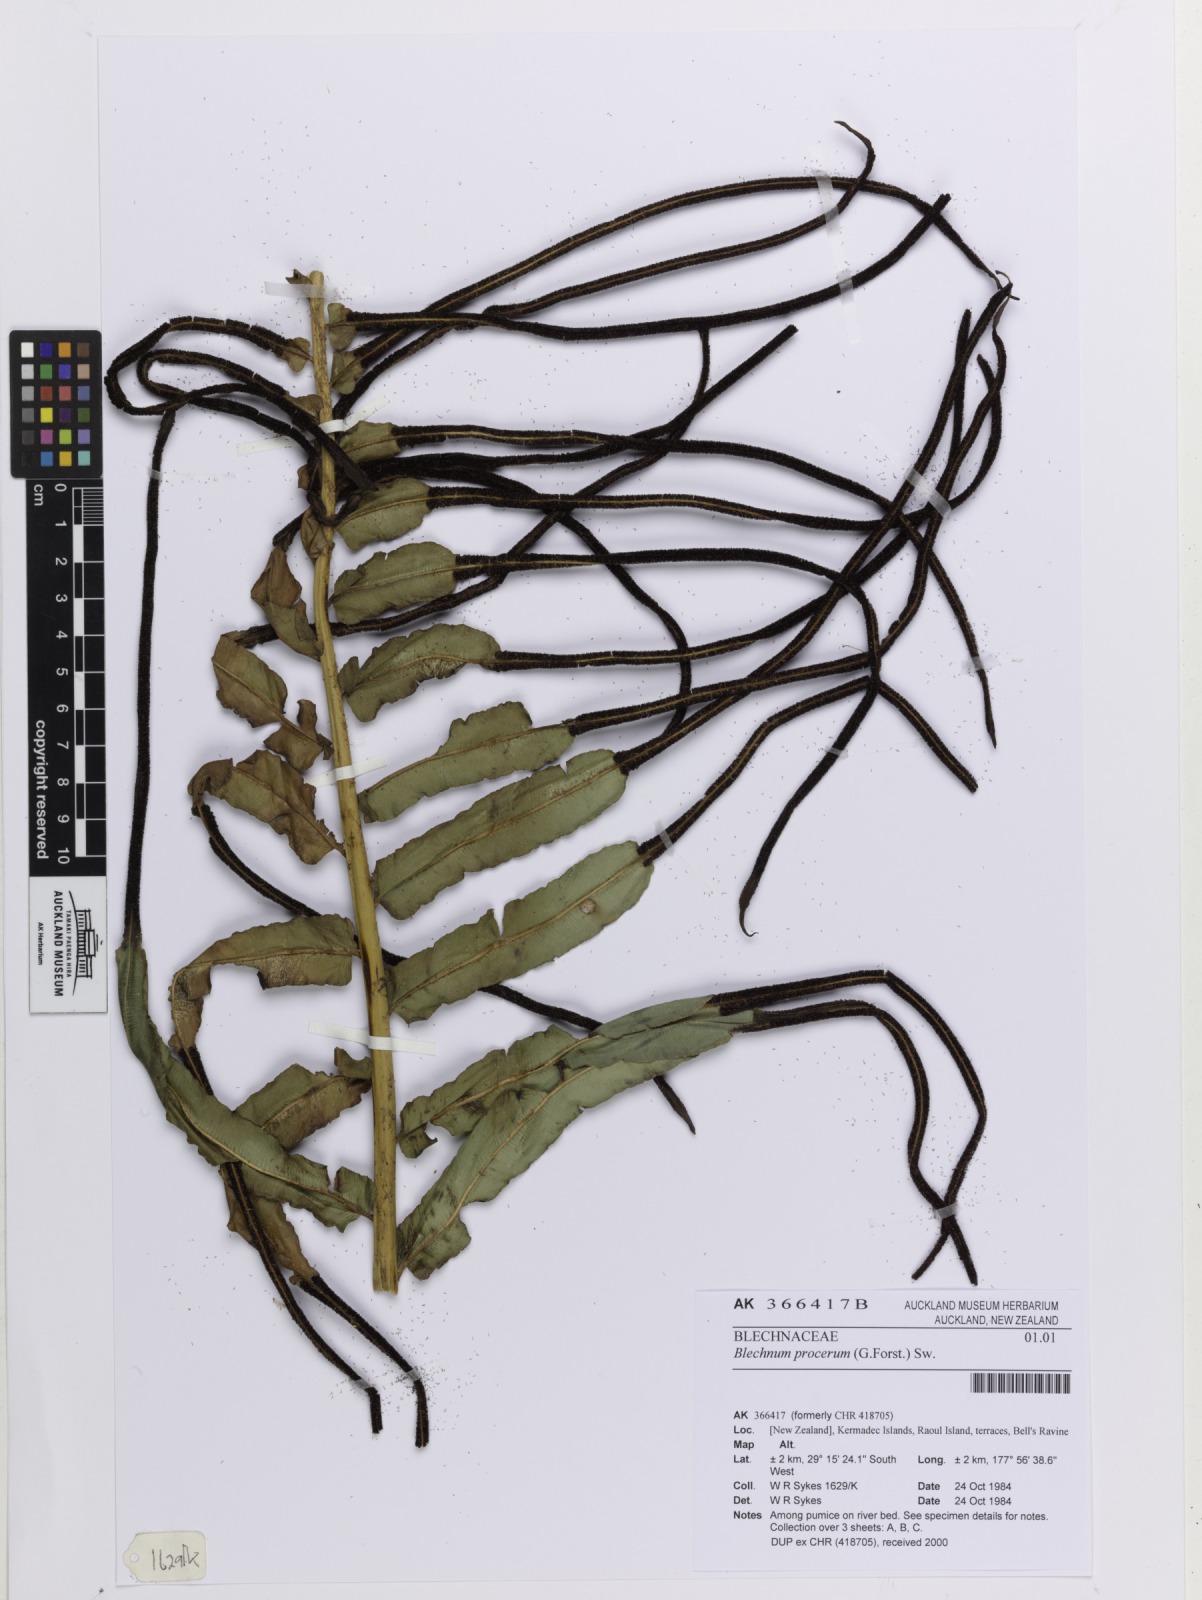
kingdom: Plantae
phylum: Tracheophyta
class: Polypodiopsida
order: Polypodiales
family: Blechnaceae
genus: Parablechnum
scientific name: Parablechnum novae-zelandiae
